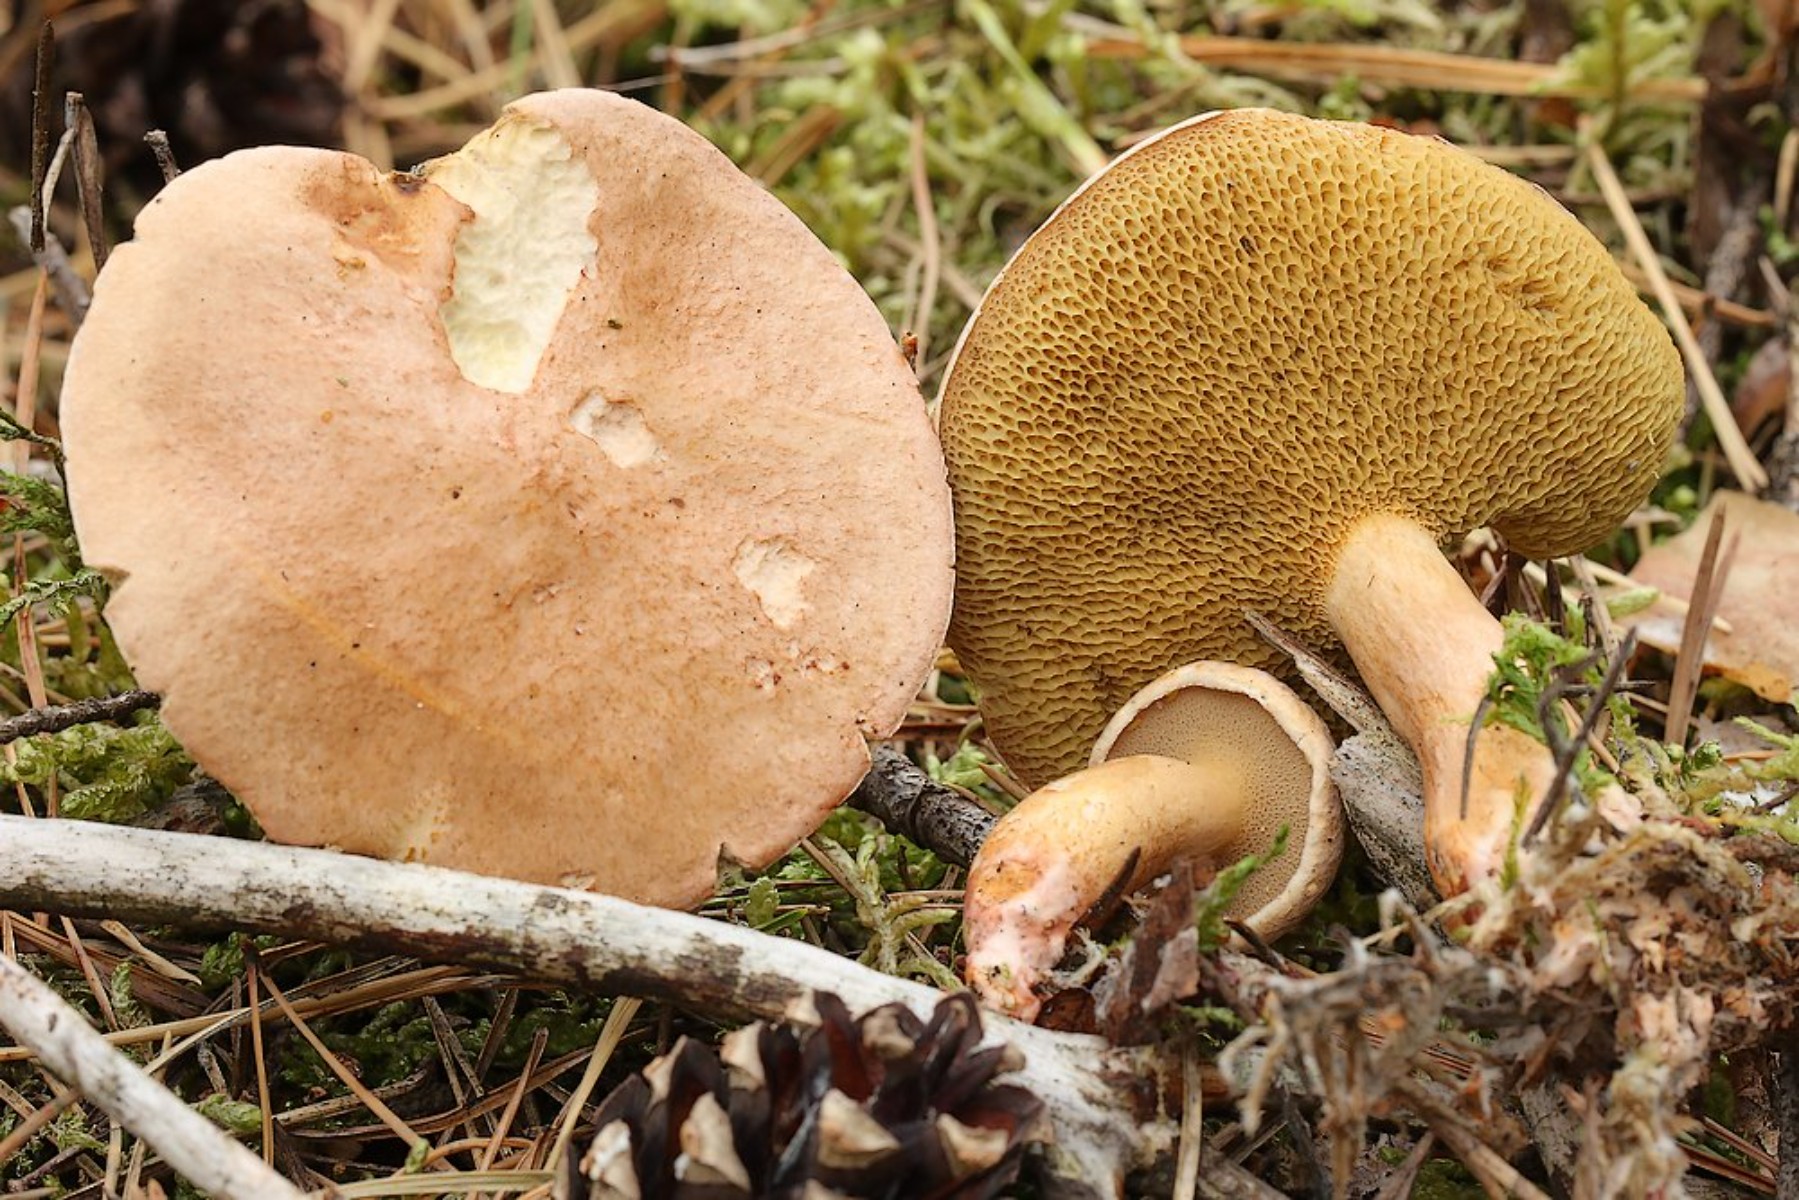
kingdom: Fungi
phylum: Basidiomycota
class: Agaricomycetes
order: Boletales
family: Suillaceae
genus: Suillus
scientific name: Suillus bovinus
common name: grovporet slimrørhat
